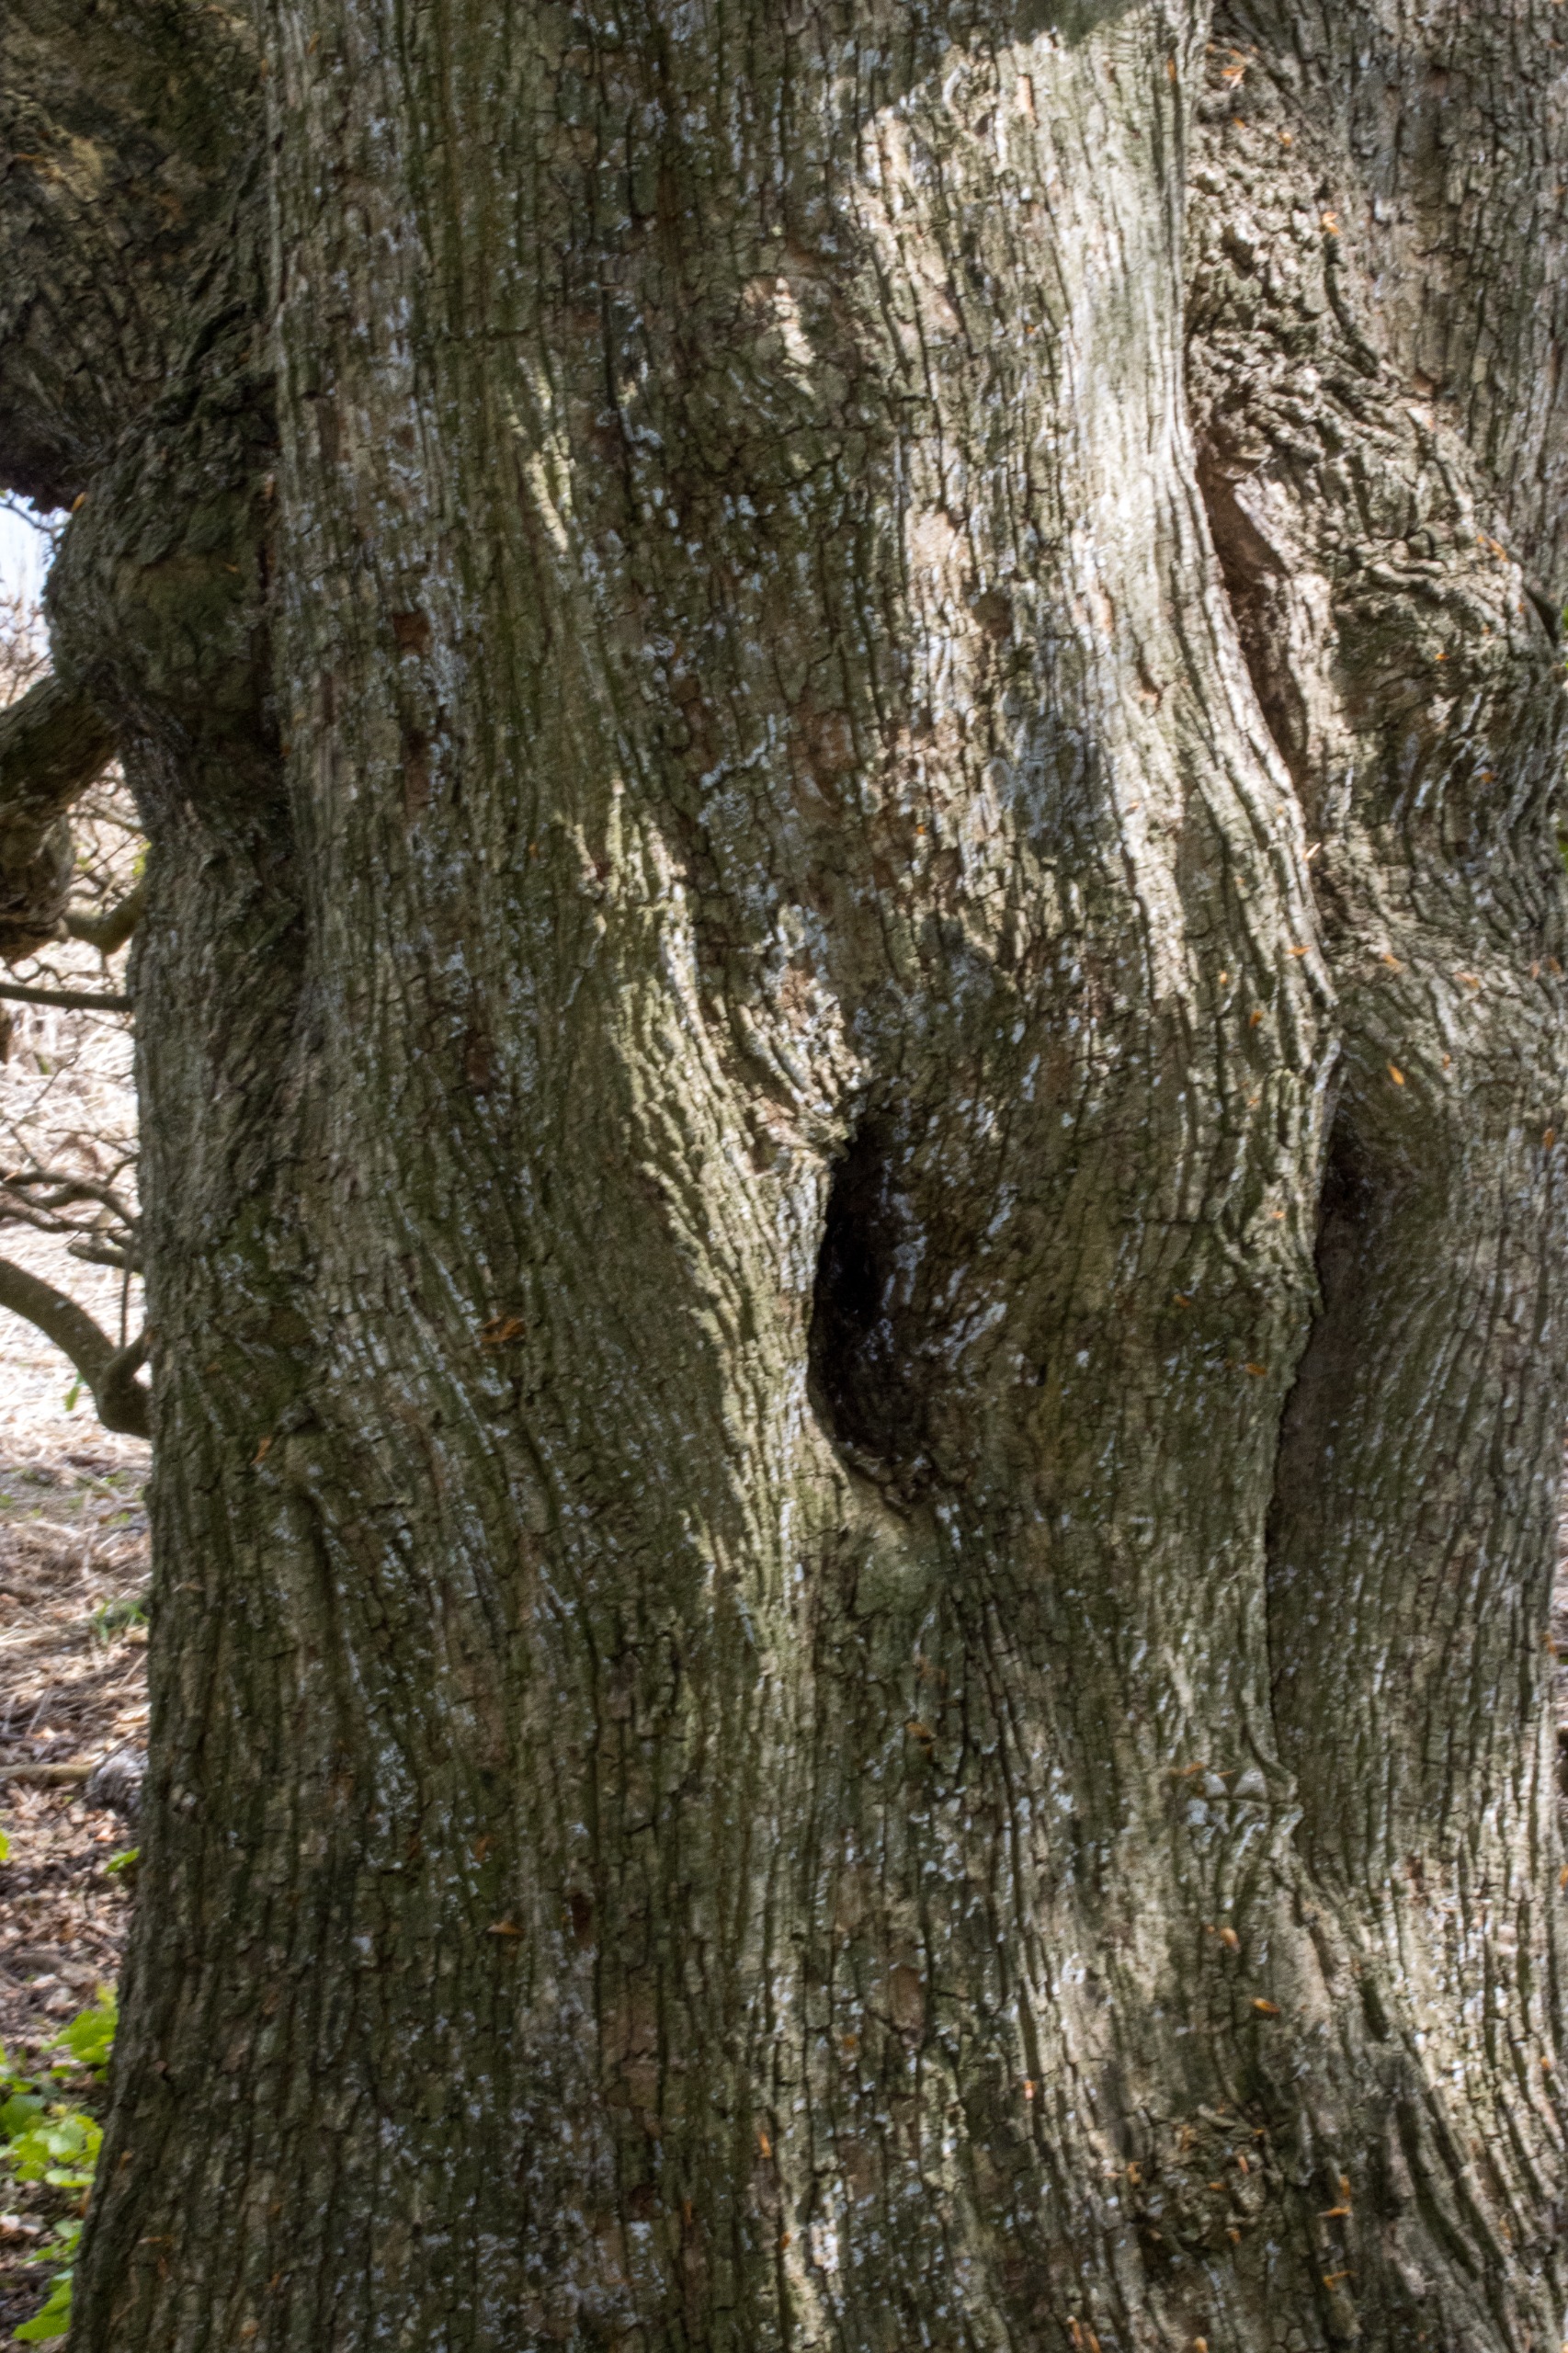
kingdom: Plantae
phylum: Tracheophyta
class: Magnoliopsida
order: Sapindales
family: Sapindaceae
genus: Acer
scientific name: Acer campestre
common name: Navr
